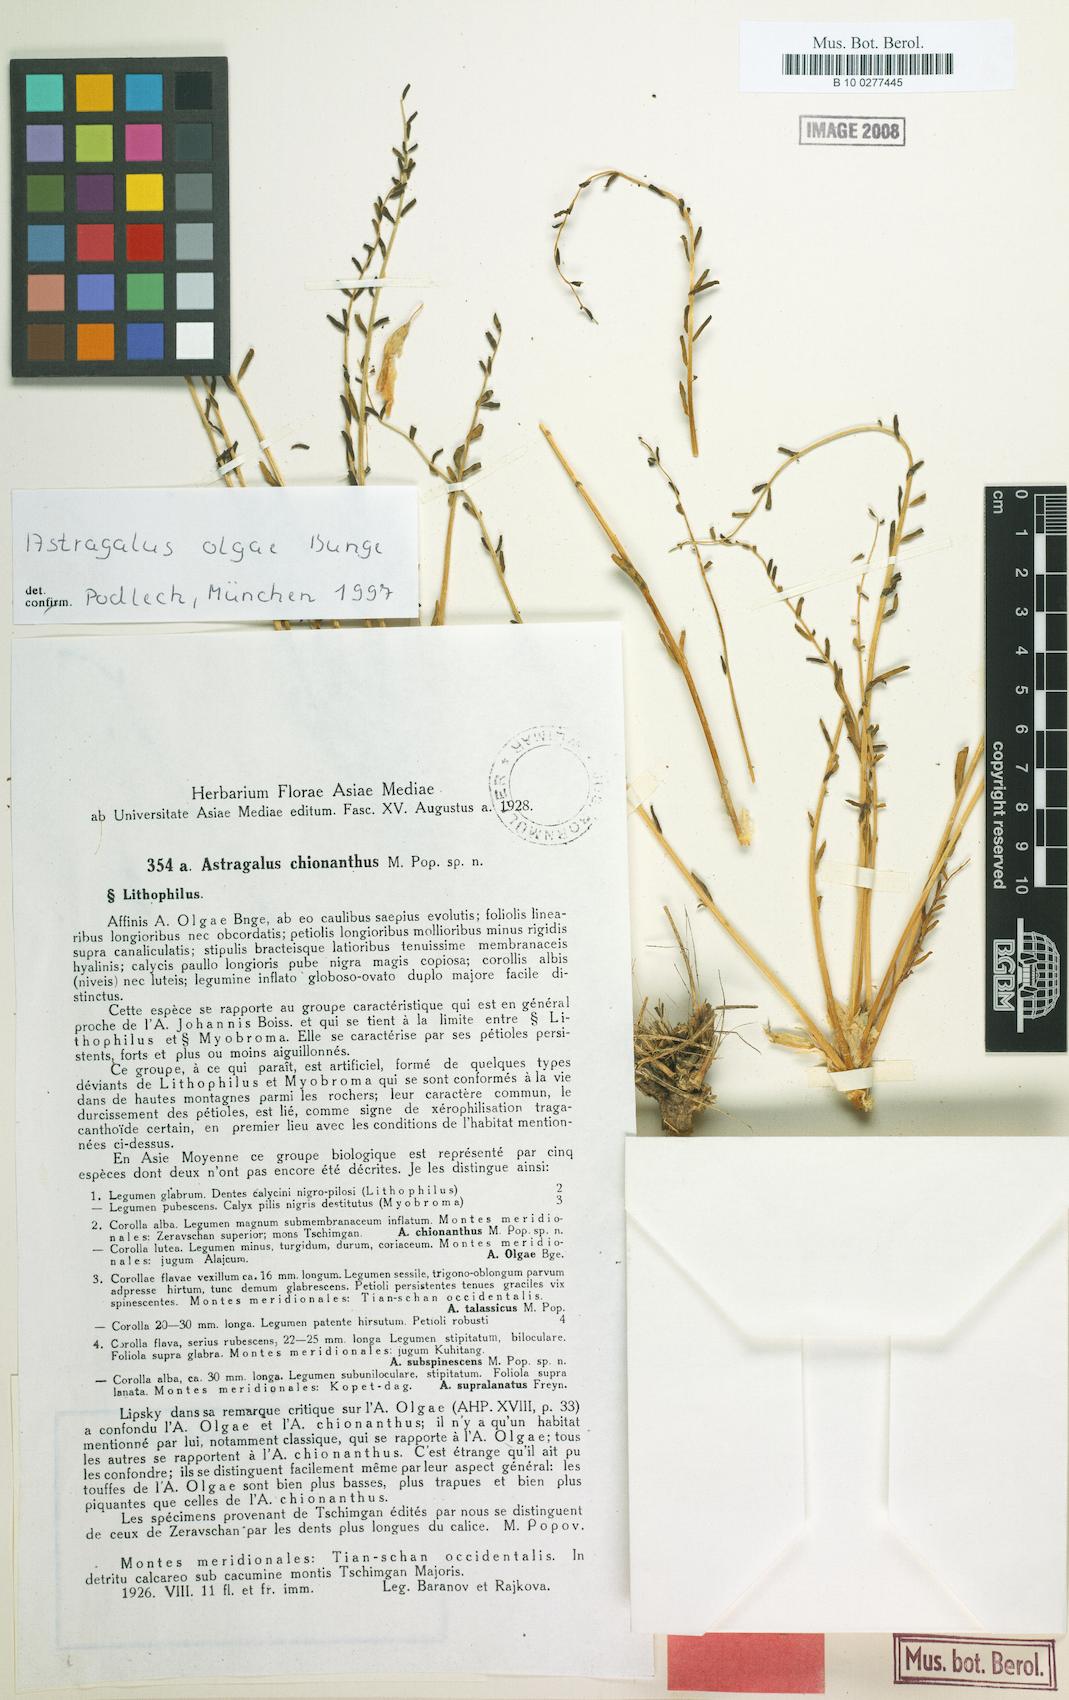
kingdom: Plantae
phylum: Tracheophyta
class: Magnoliopsida
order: Fabales
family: Fabaceae
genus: Astragalus
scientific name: Astragalus olgae
